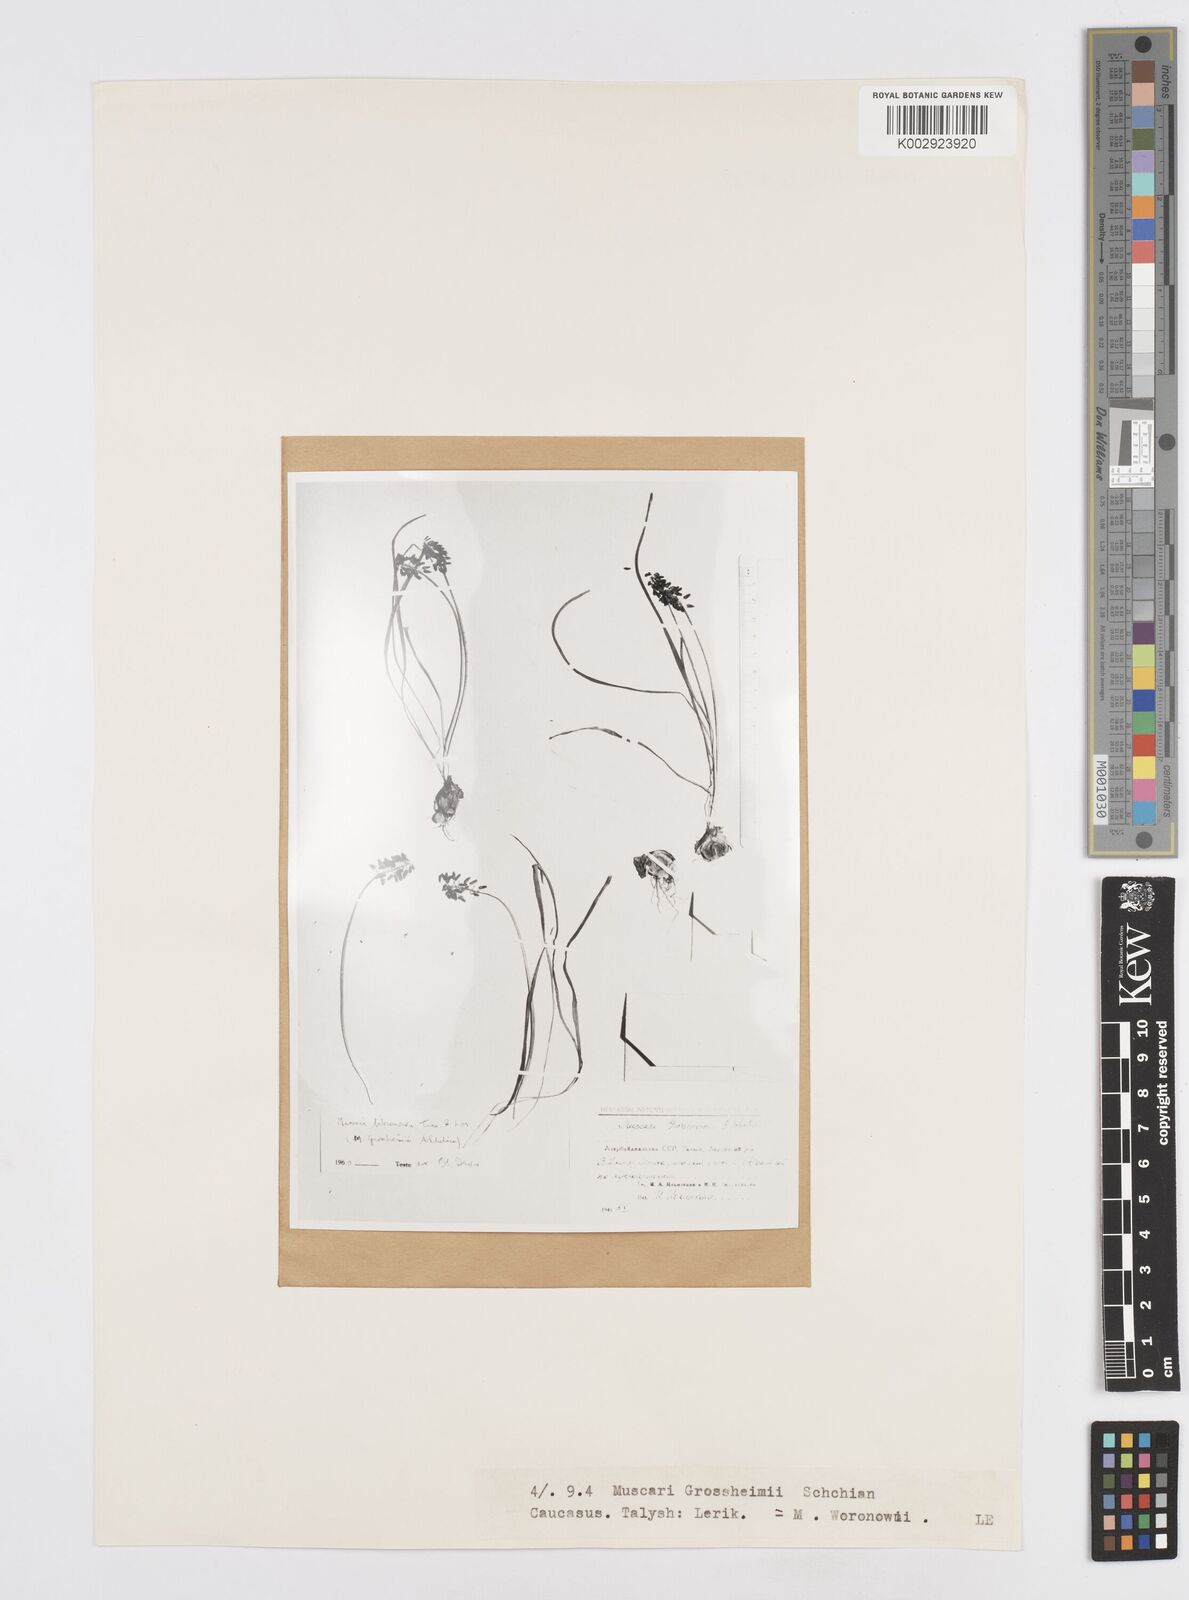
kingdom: Plantae
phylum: Tracheophyta
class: Liliopsida
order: Asparagales
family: Asparagaceae
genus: Muscari
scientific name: Muscari neglectum
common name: Grape-hyacinth
